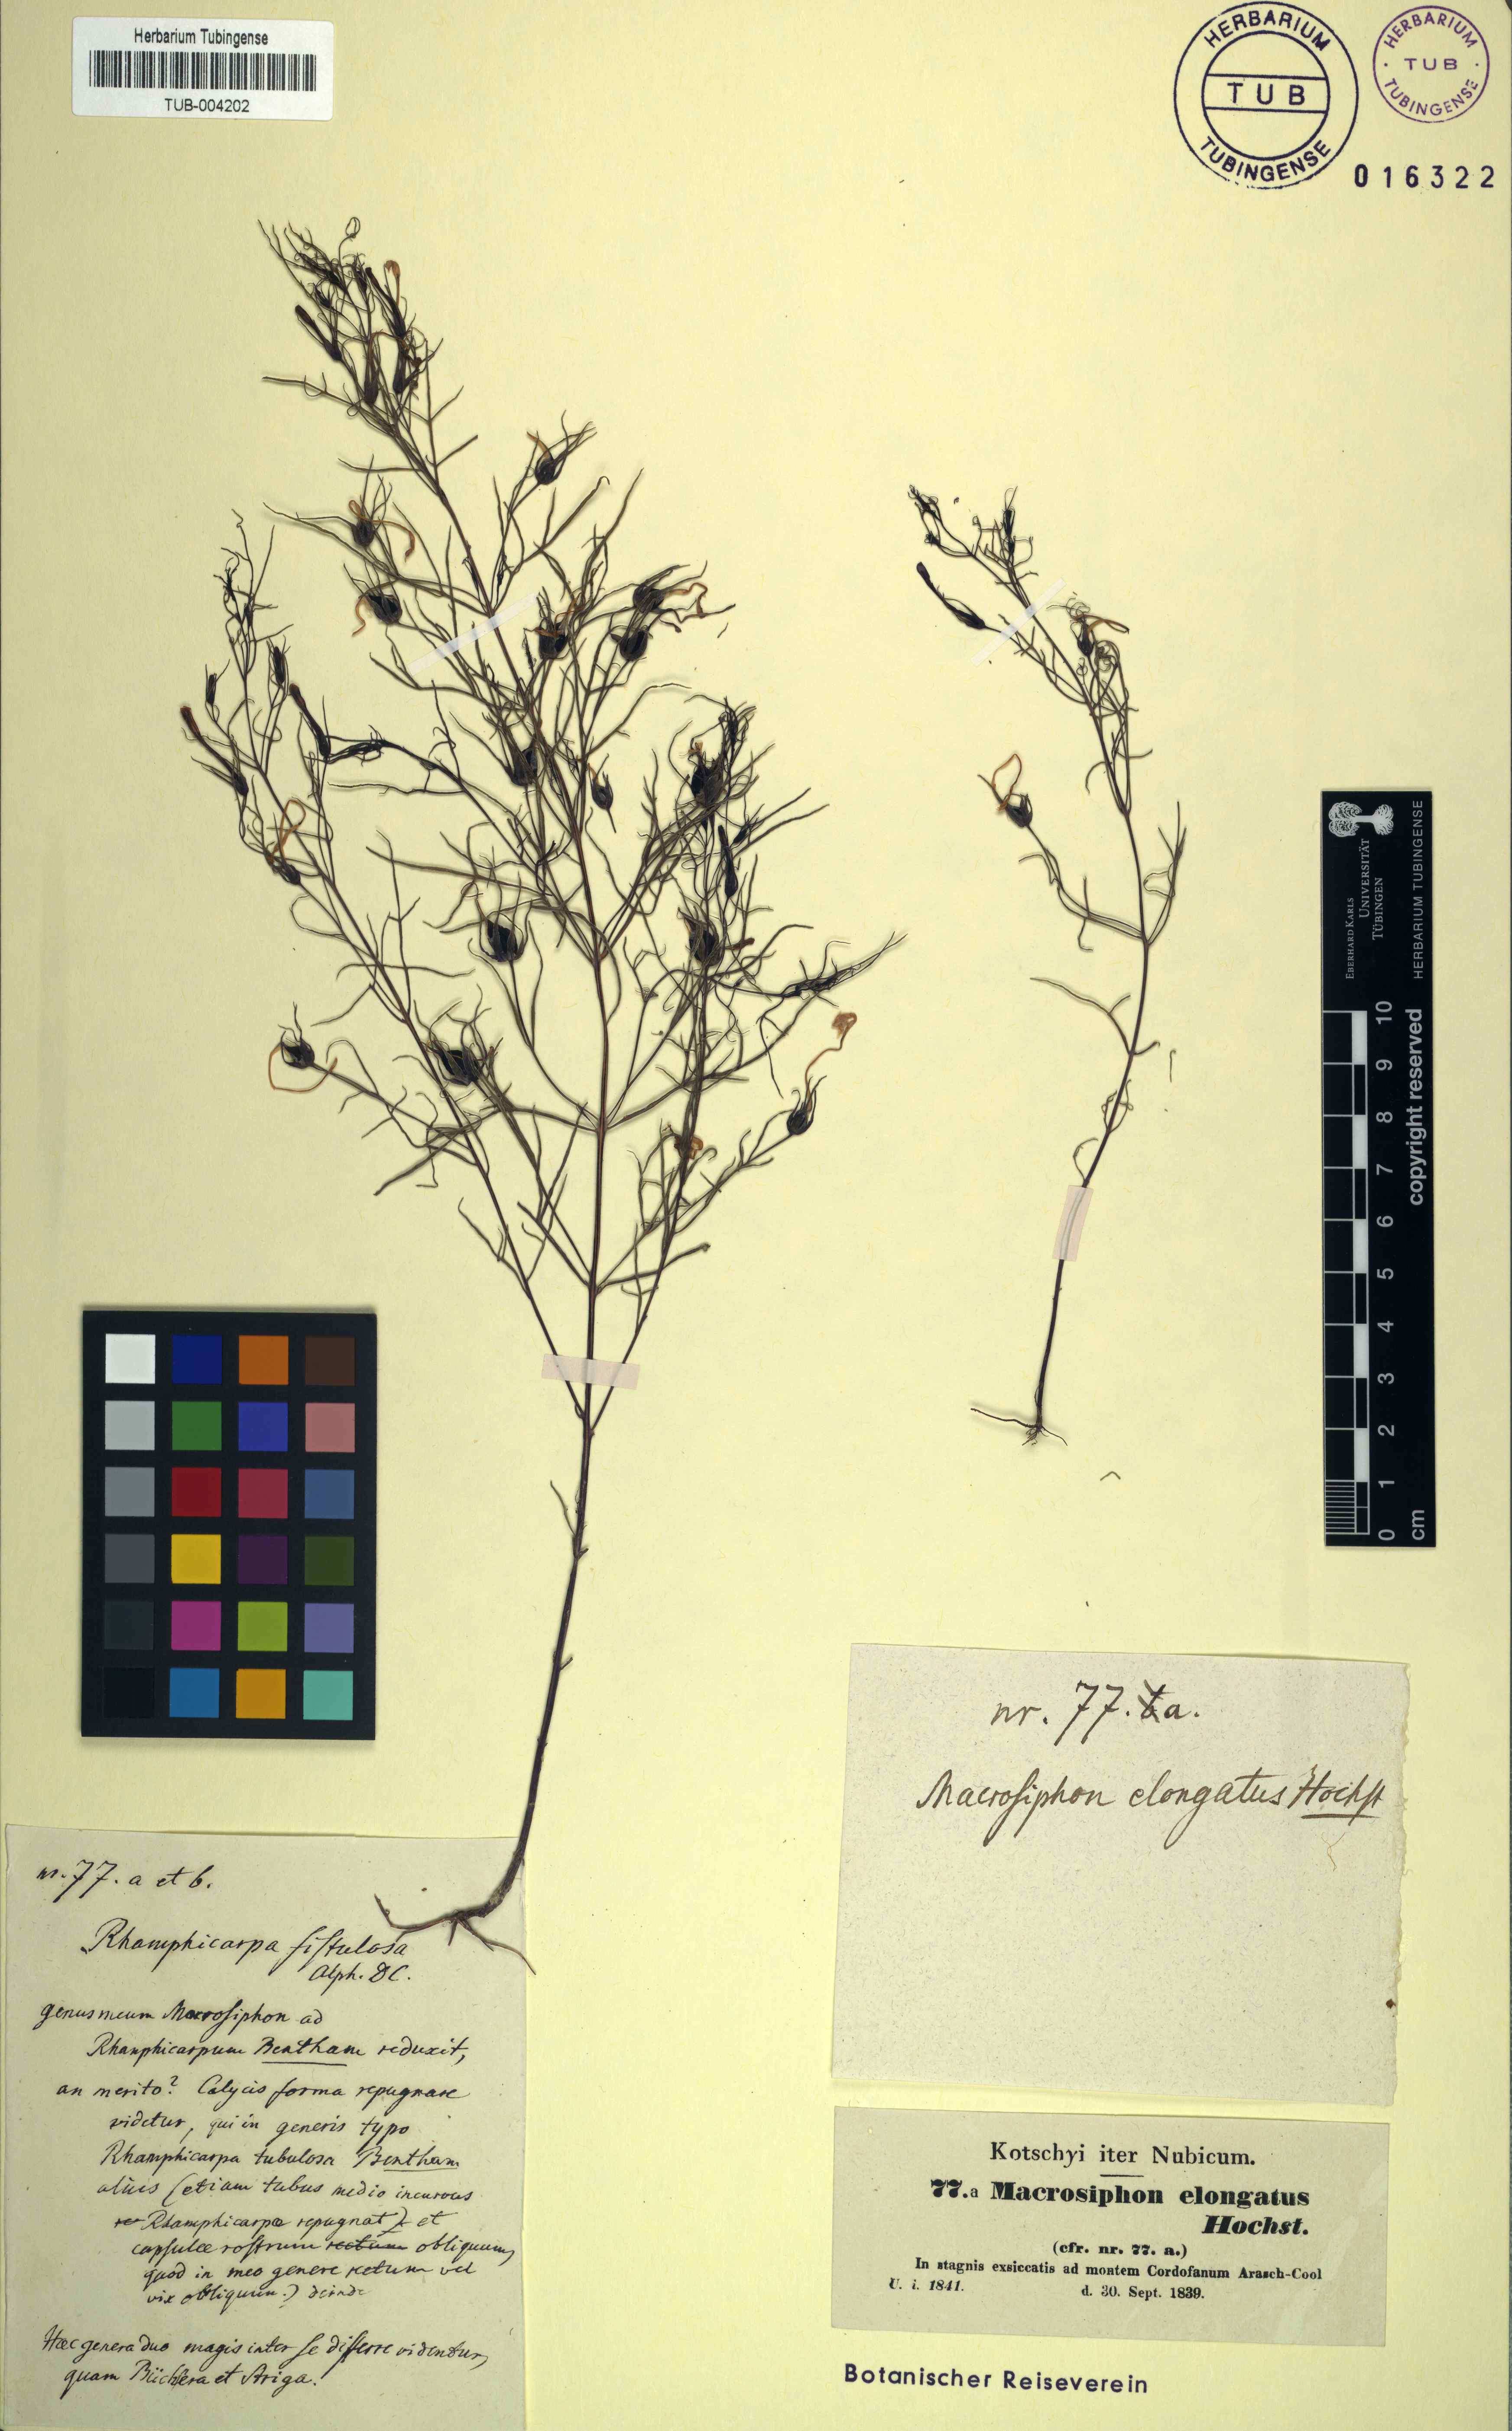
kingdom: Plantae
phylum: Tracheophyta
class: Magnoliopsida
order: Lamiales
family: Orobanchaceae
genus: Rhamphicarpa
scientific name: Rhamphicarpa elongata
